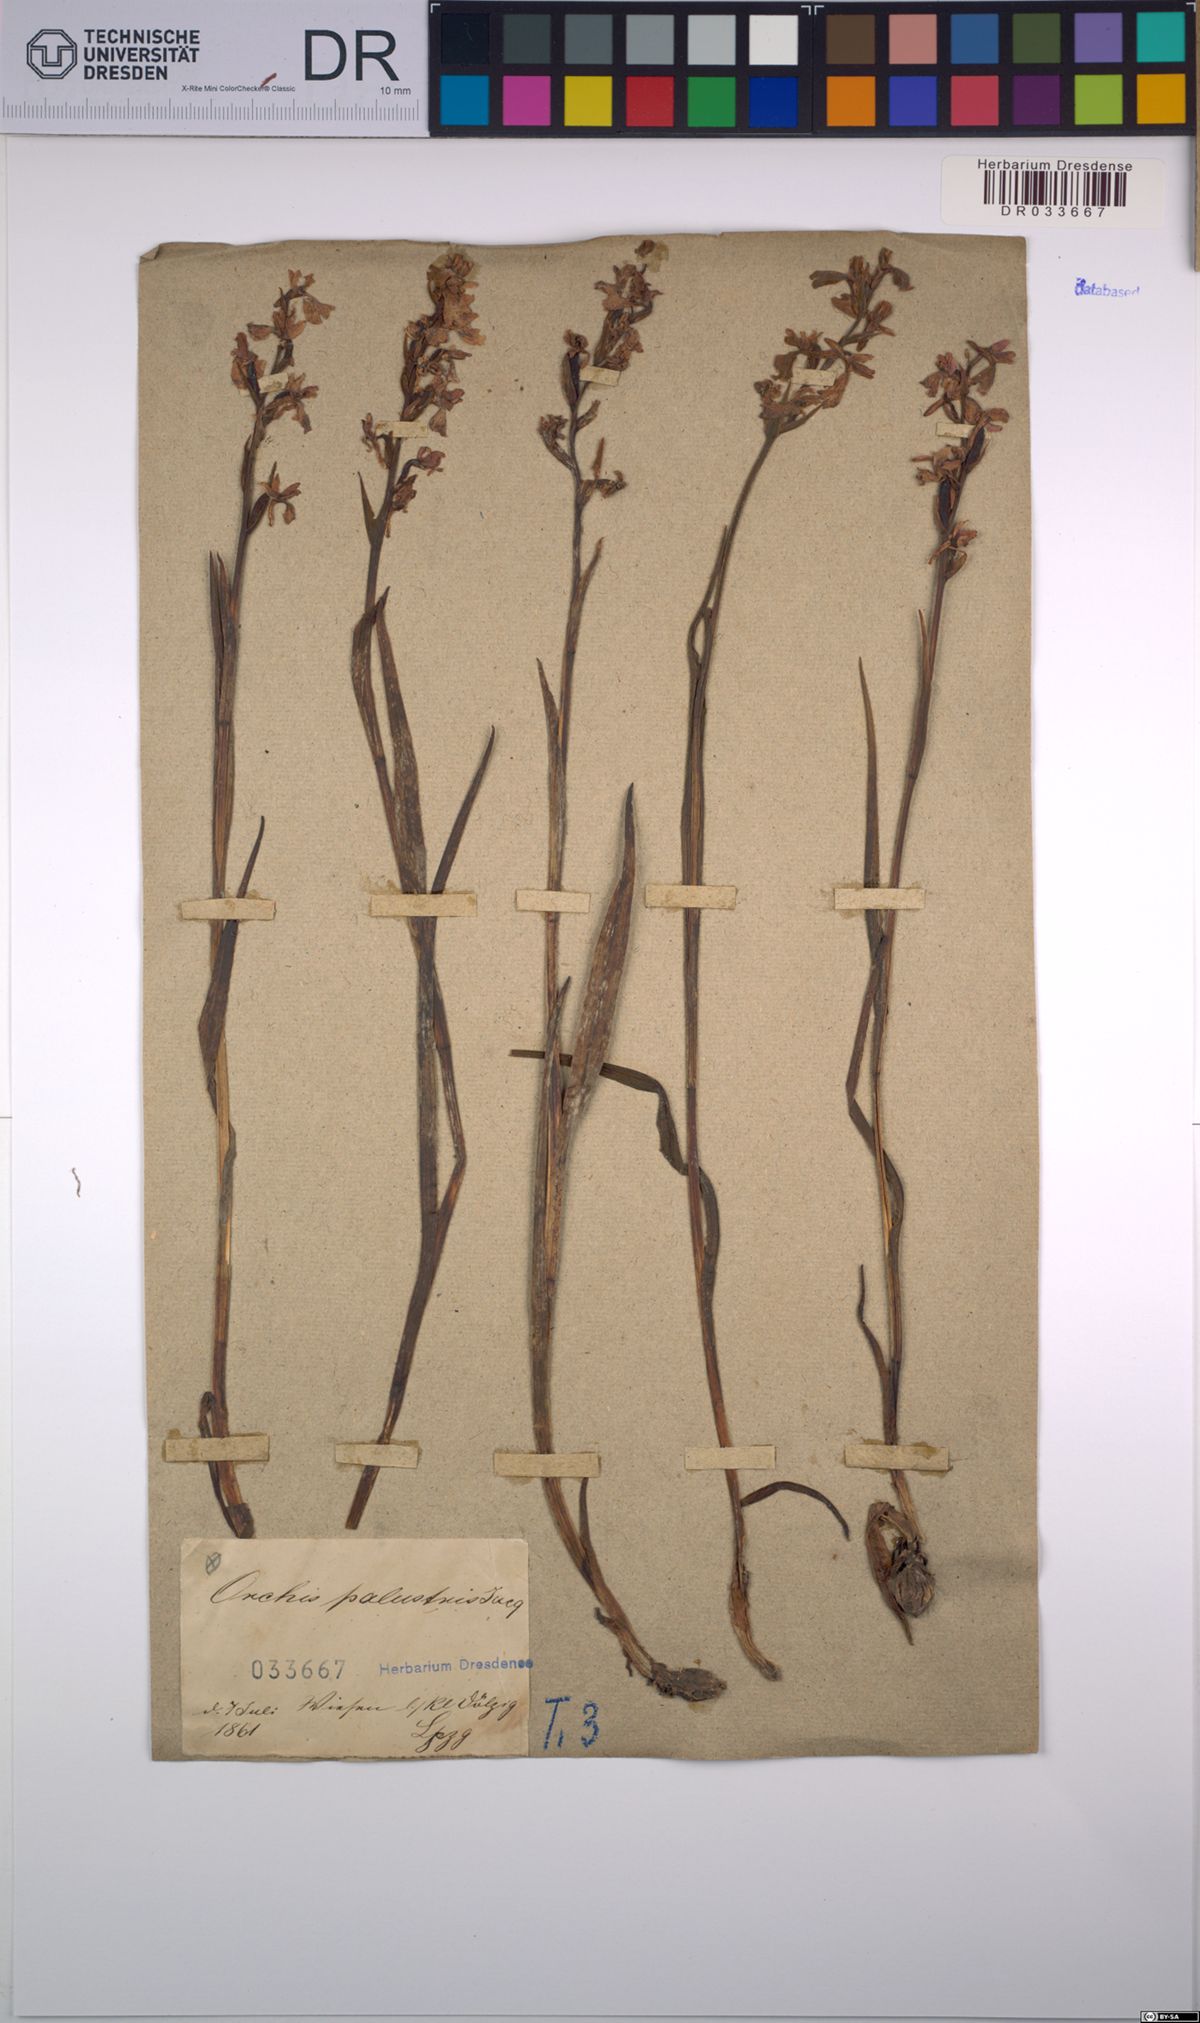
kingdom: Plantae
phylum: Tracheophyta
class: Liliopsida
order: Asparagales
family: Orchidaceae
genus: Anacamptis
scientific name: Anacamptis palustris
